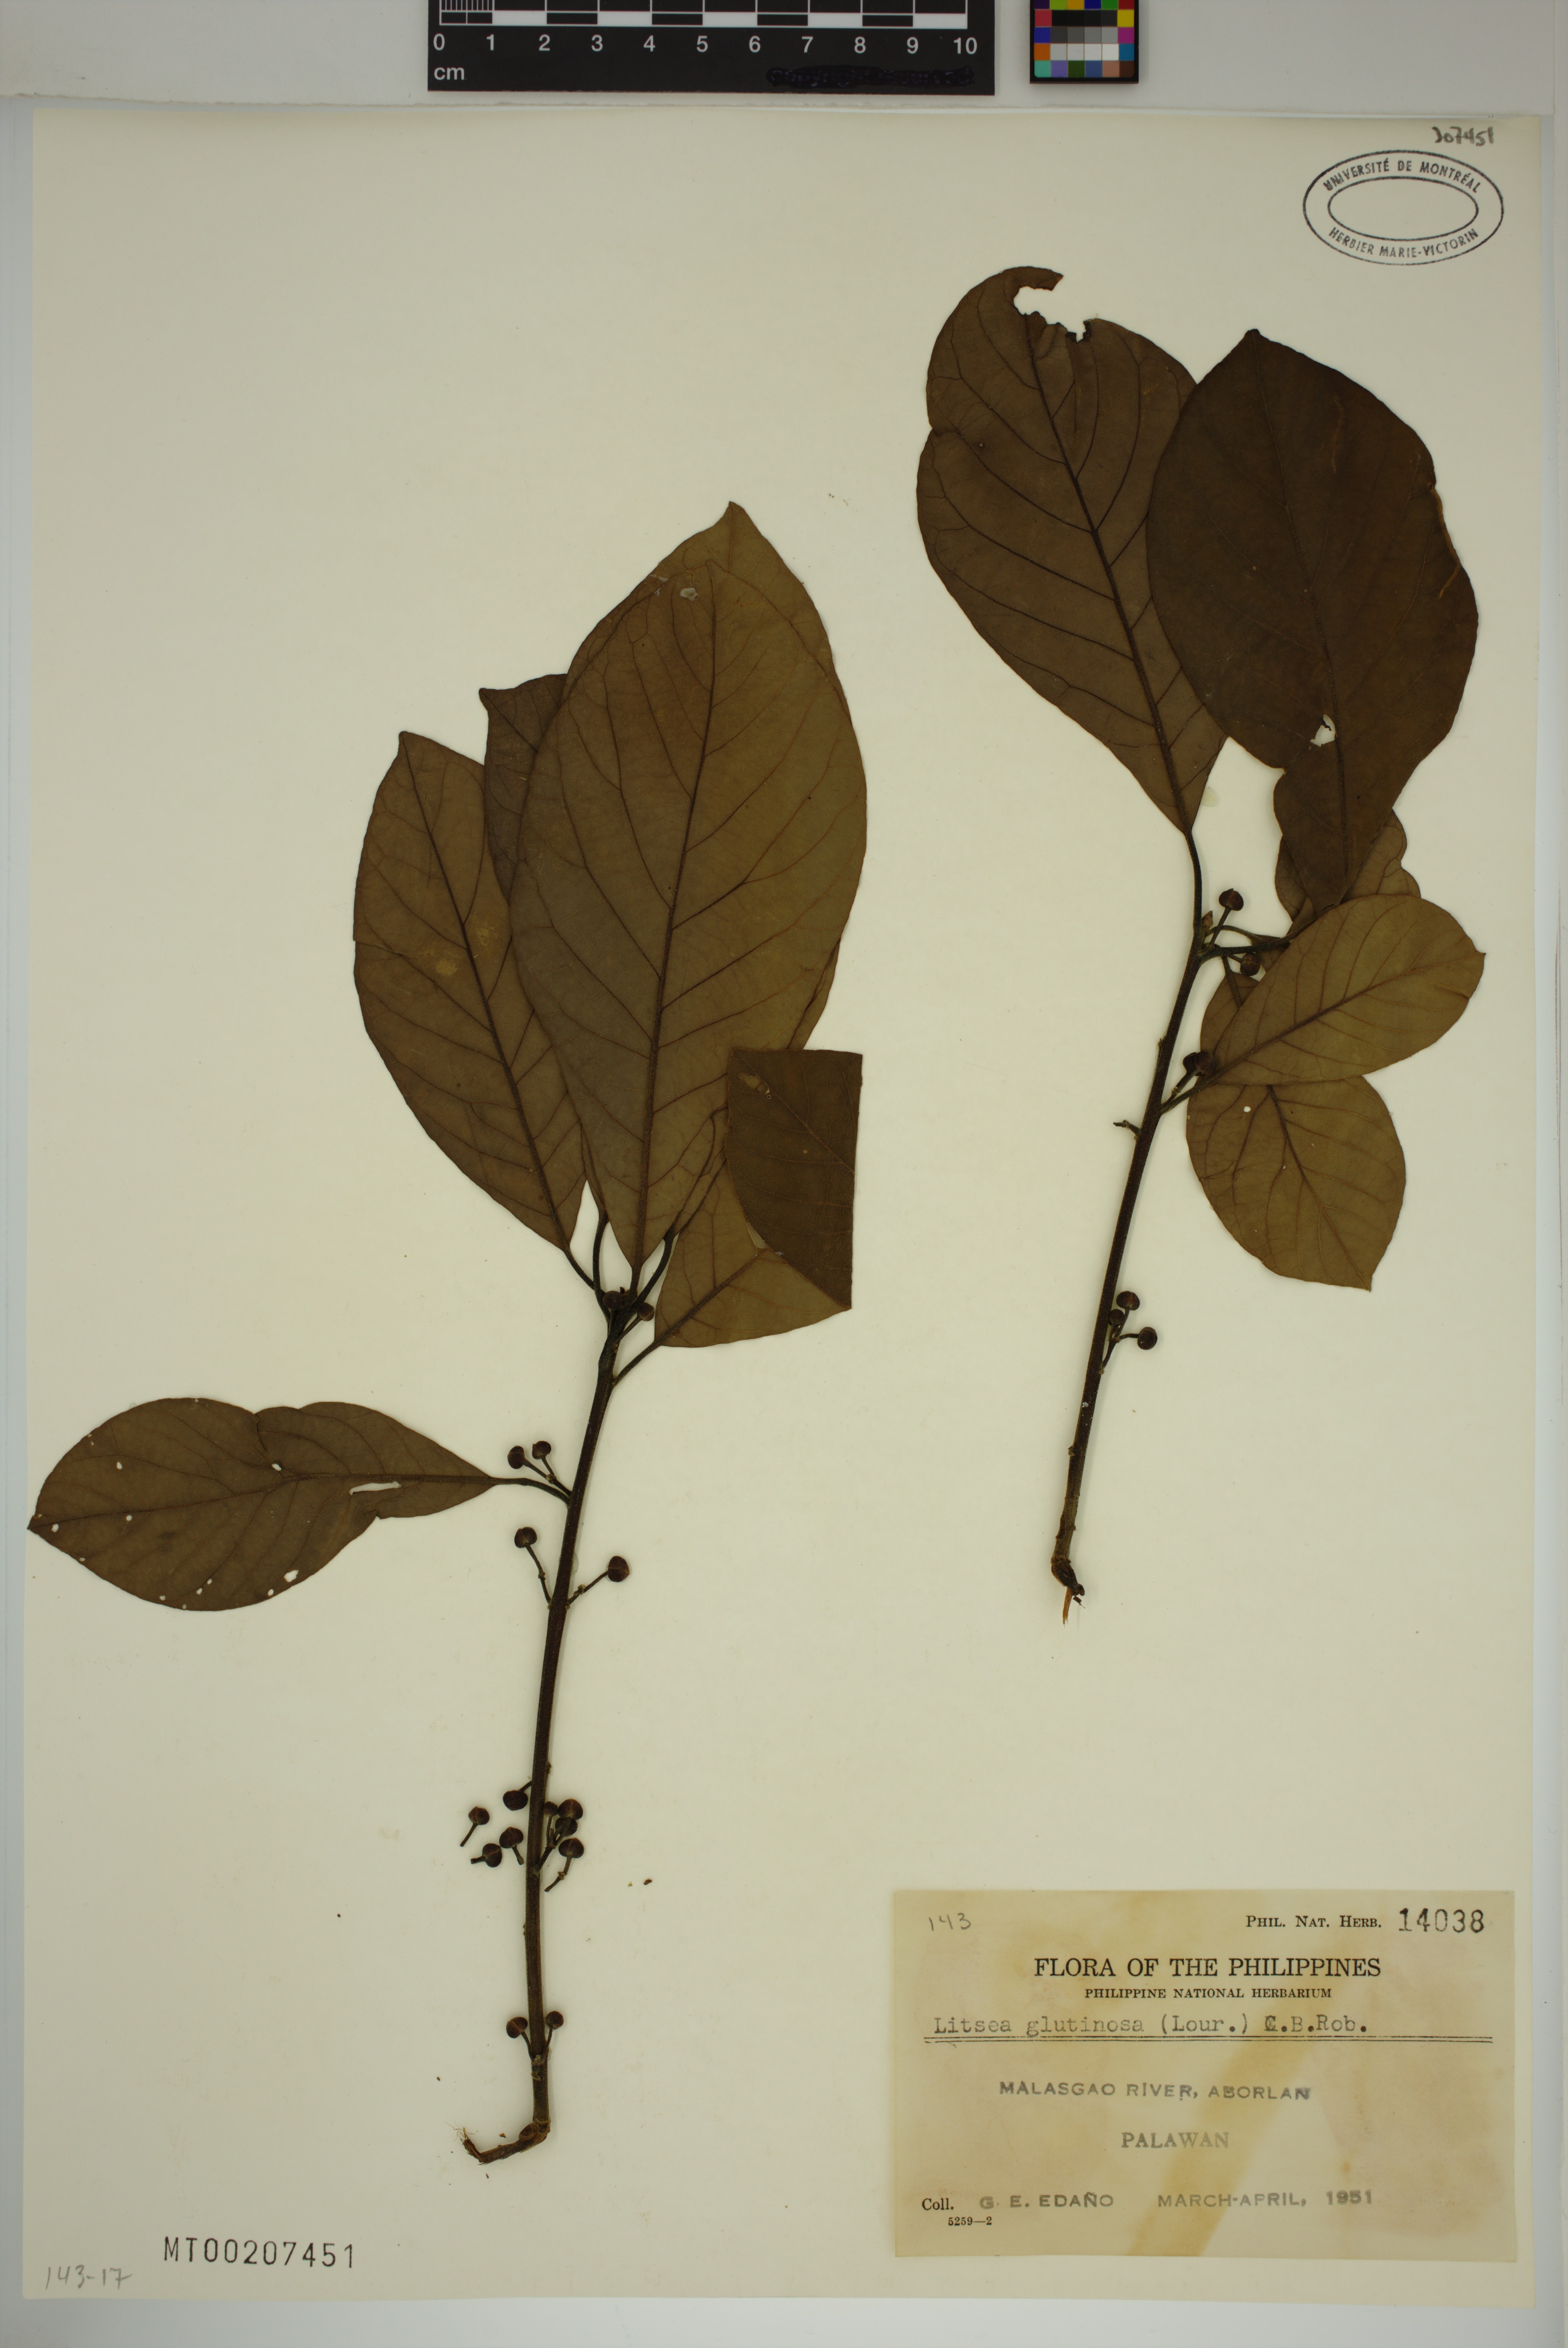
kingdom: Plantae
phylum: Tracheophyta
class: Magnoliopsida
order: Laurales
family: Lauraceae
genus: Litsea
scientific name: Litsea glutinosa
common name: Indian-laurel
